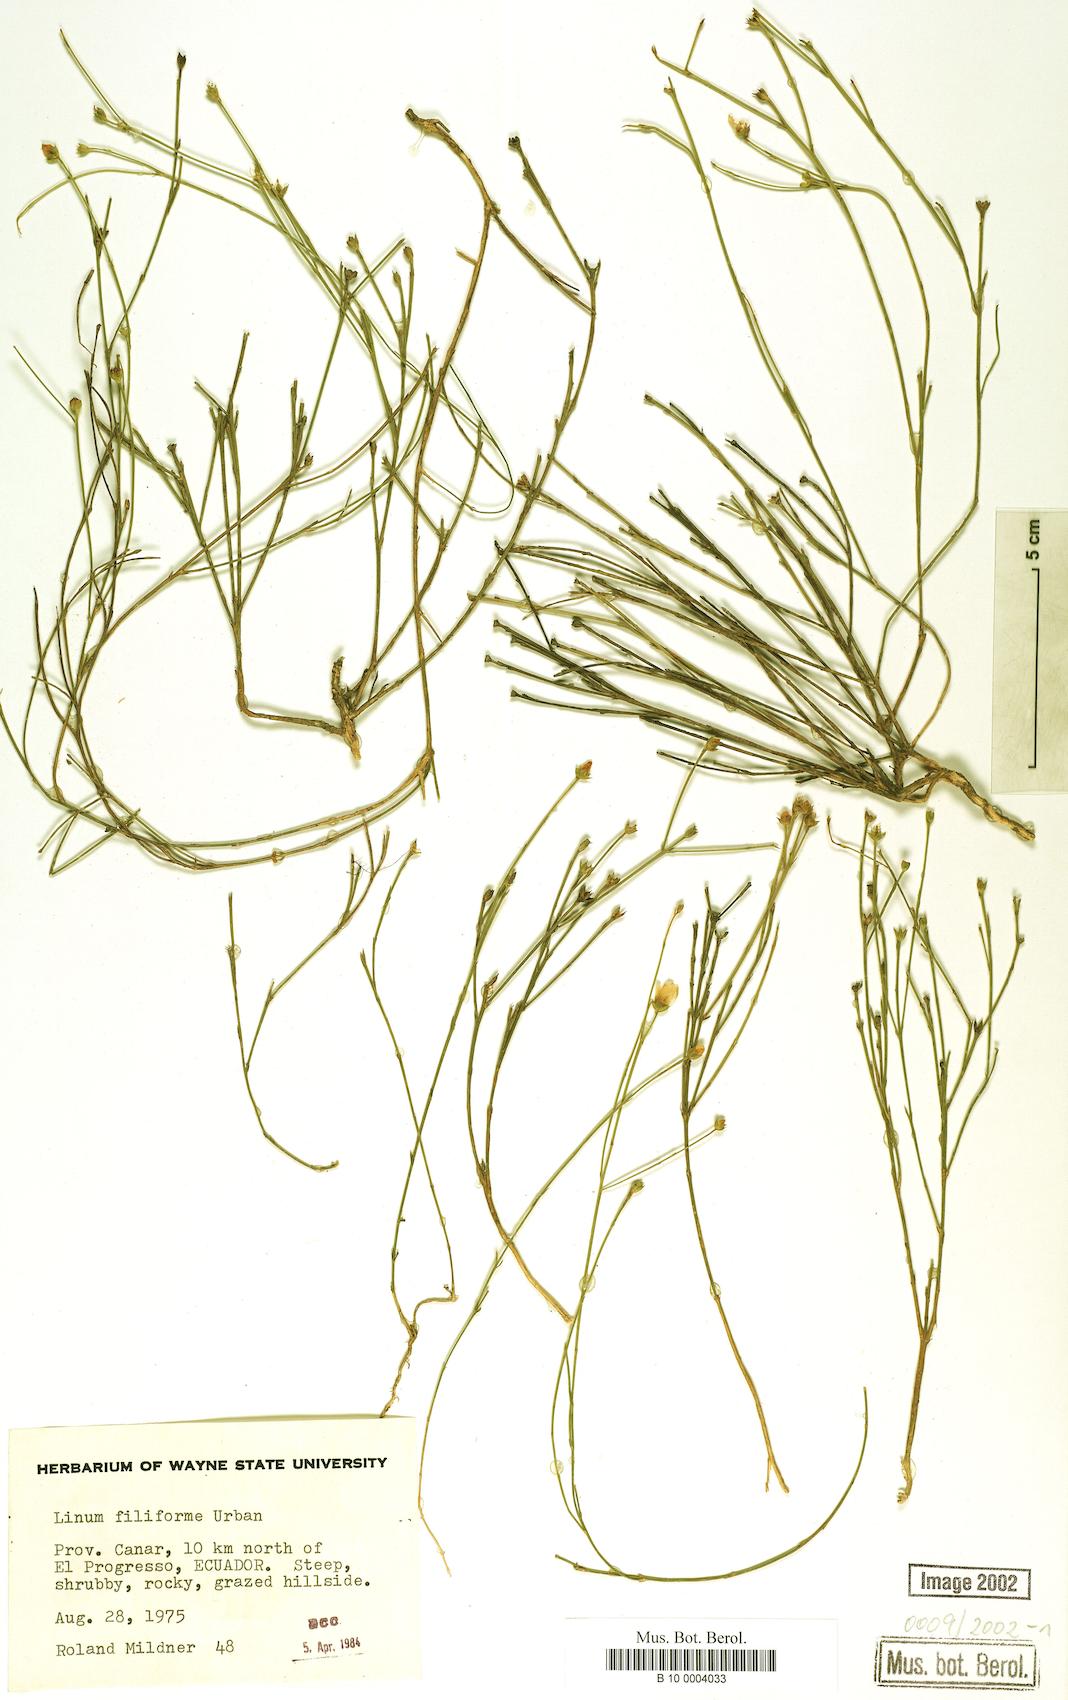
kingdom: Plantae
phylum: Tracheophyta
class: Magnoliopsida
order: Malpighiales
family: Linaceae
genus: Linum
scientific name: Linum filiforme
